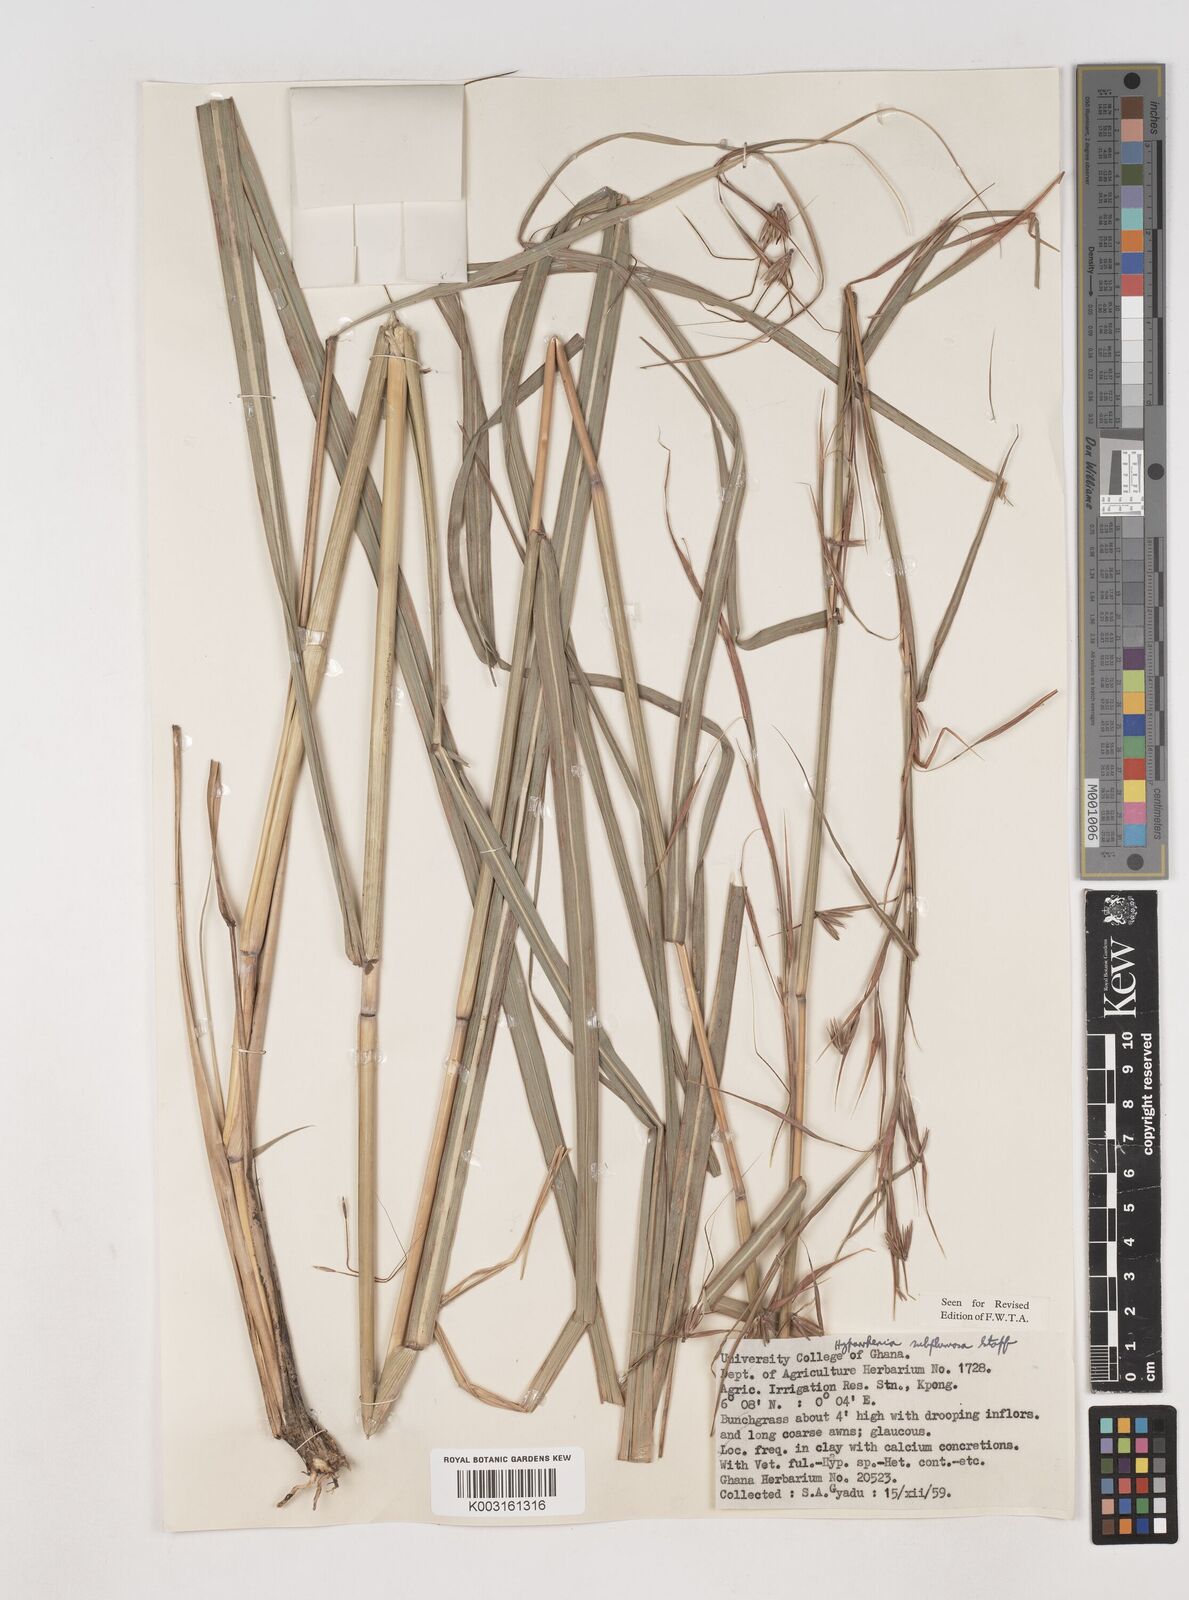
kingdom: Plantae
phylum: Tracheophyta
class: Liliopsida
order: Poales
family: Poaceae
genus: Hyparrhenia
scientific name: Hyparrhenia subplumosa
